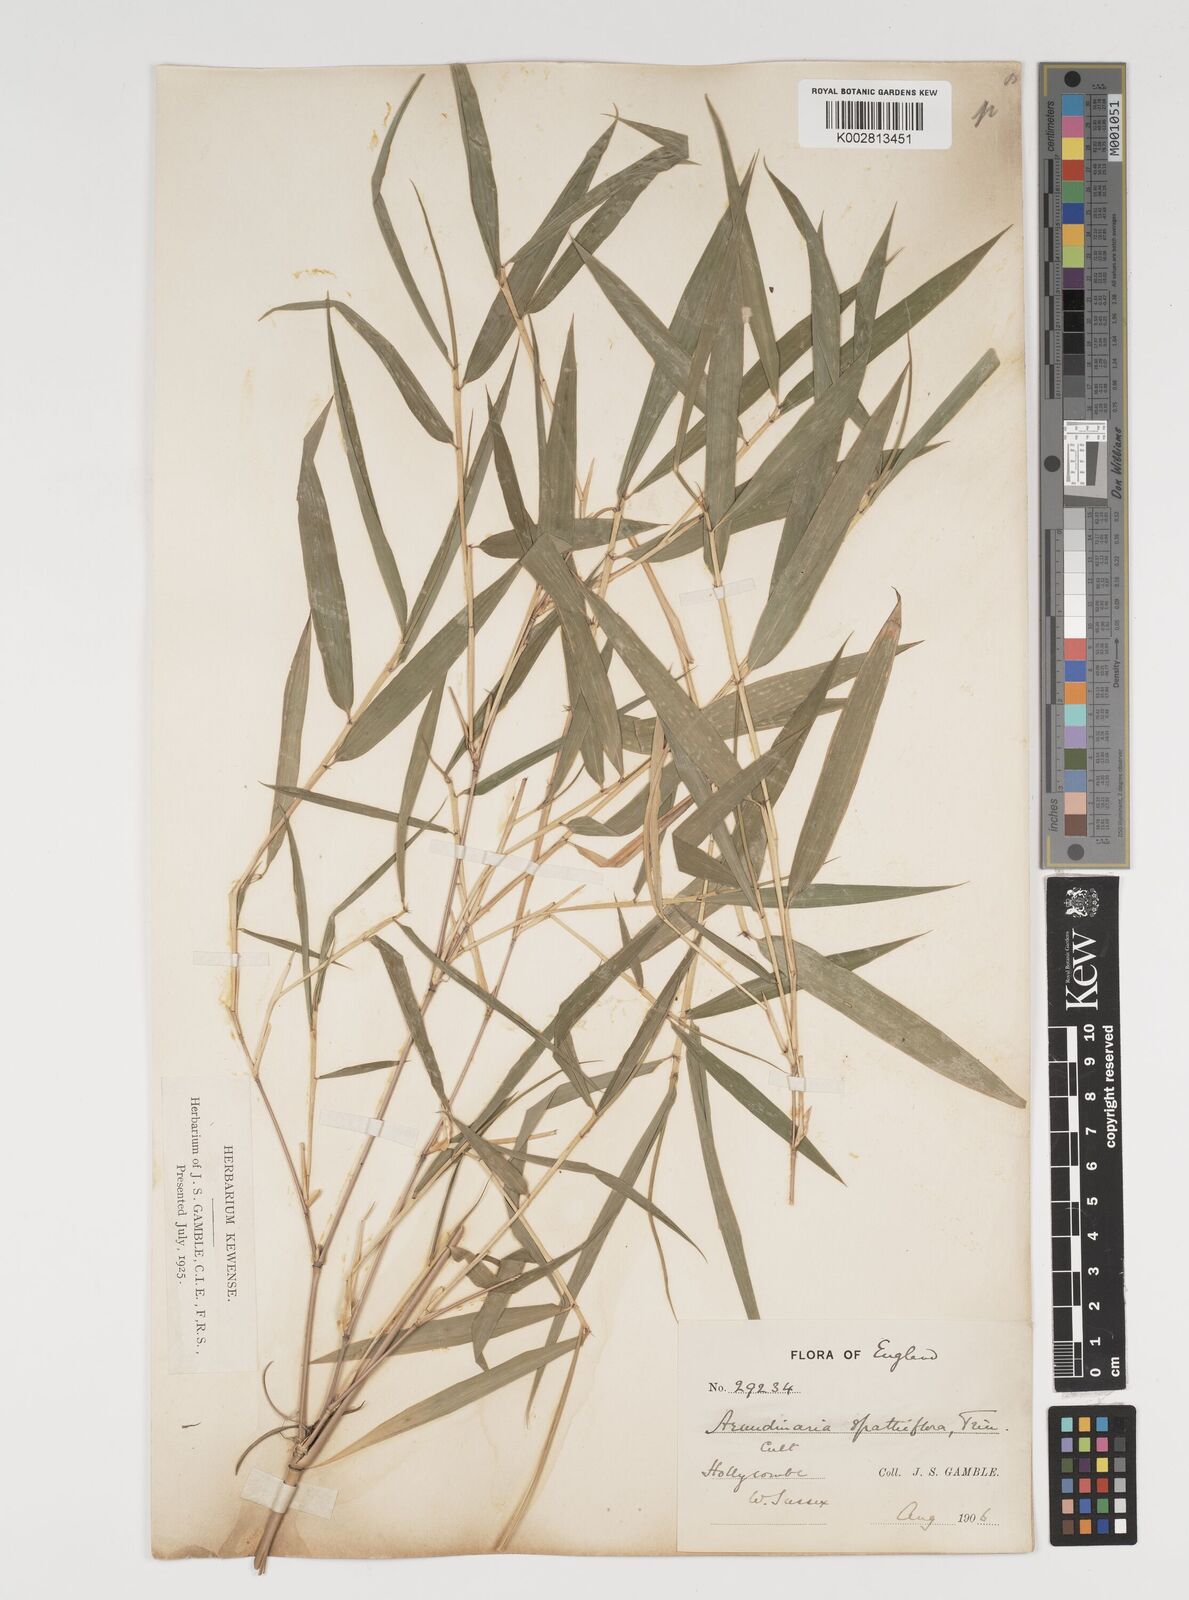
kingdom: Plantae
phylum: Tracheophyta
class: Liliopsida
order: Poales
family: Poaceae
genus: Thamnocalamus
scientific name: Thamnocalamus spathiflorus
